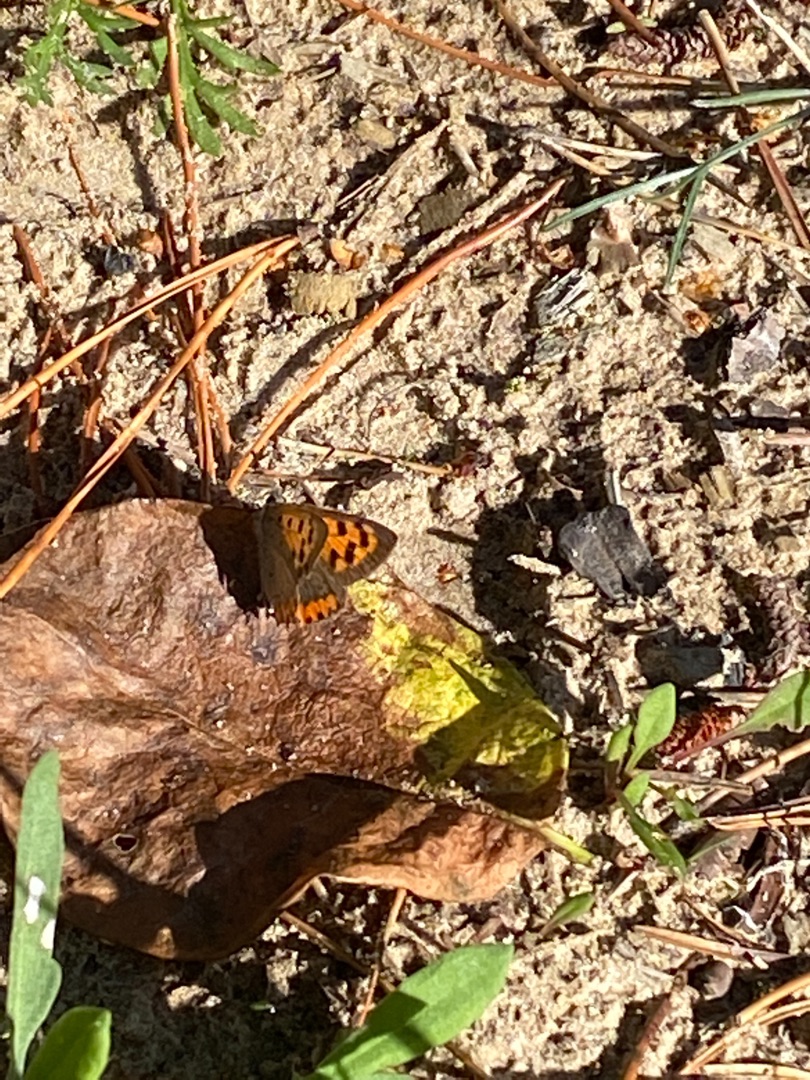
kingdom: Animalia
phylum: Arthropoda
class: Insecta
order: Lepidoptera
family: Lycaenidae
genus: Lycaena
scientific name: Lycaena phlaeas
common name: Lille ildfugl
